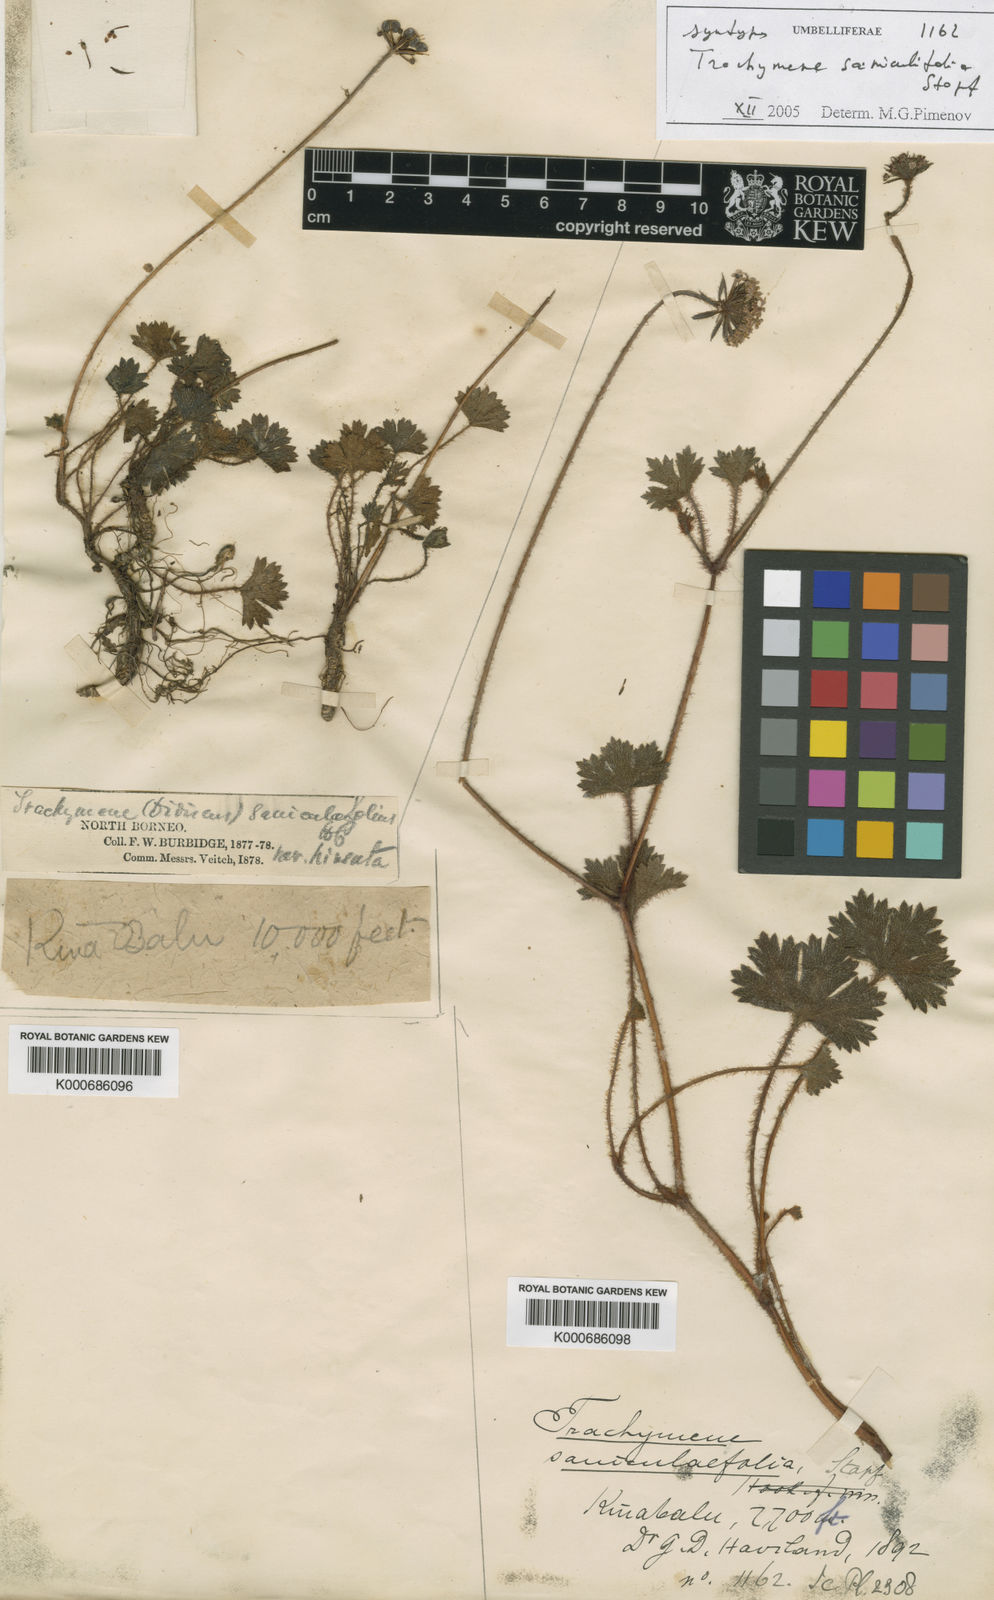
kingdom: Plantae
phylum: Tracheophyta
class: Magnoliopsida
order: Apiales
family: Araliaceae
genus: Trachymene
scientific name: Trachymene saniculifolia
